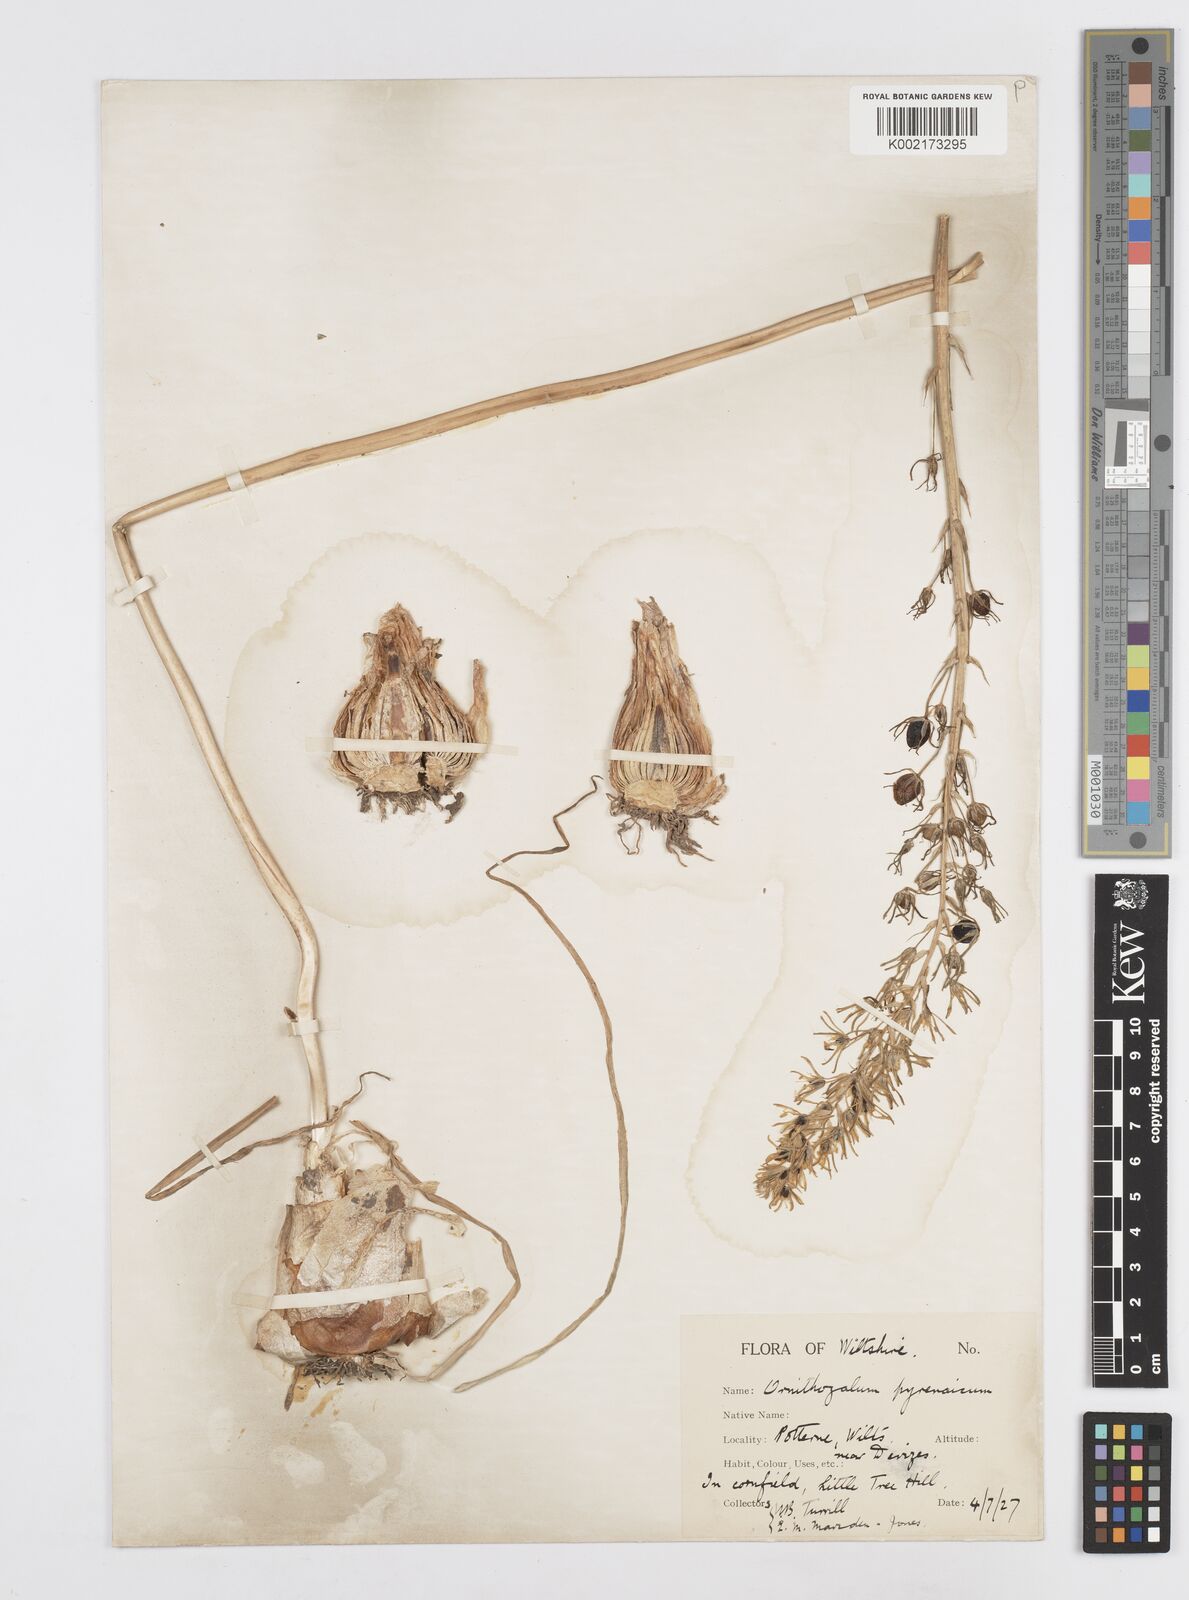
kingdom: Plantae
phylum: Tracheophyta
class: Liliopsida
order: Asparagales
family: Asparagaceae
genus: Ornithogalum
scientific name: Ornithogalum pyrenaicum
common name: Spiked star-of-bethlehem
